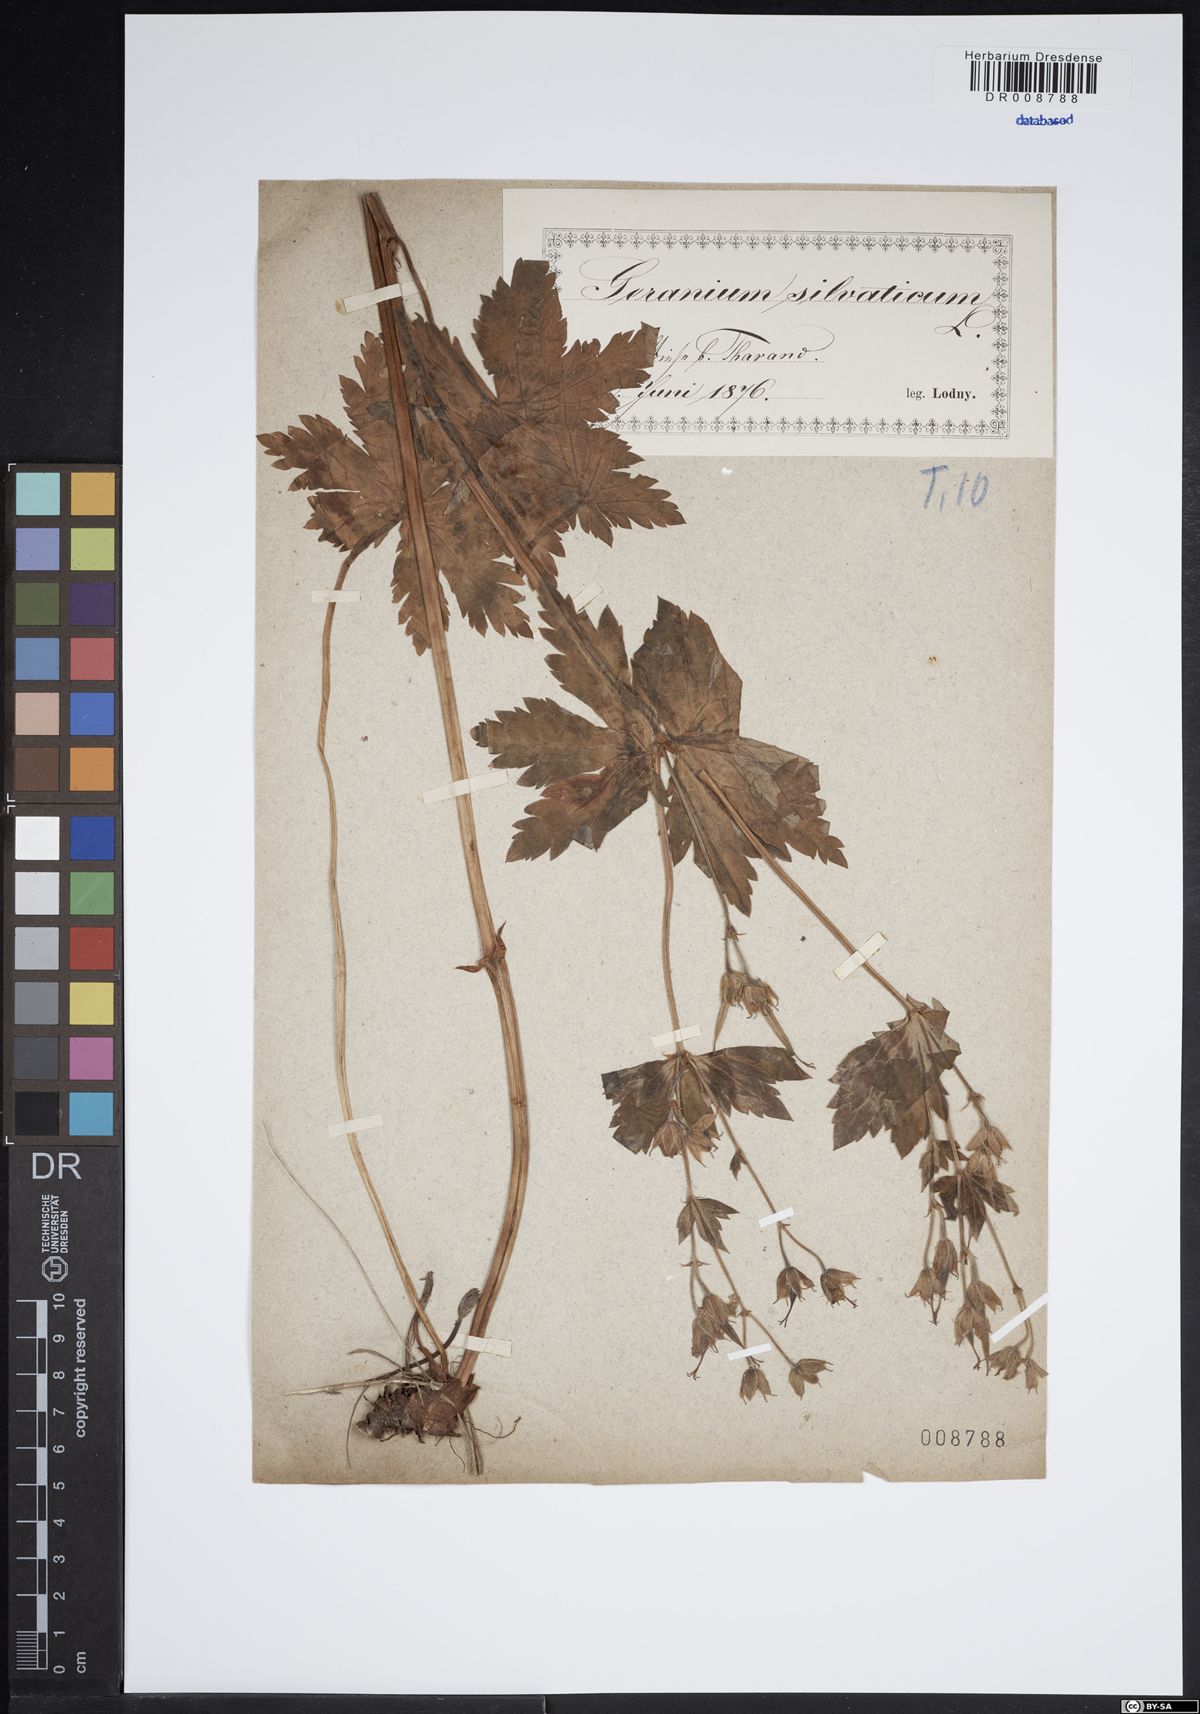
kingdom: Plantae
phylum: Tracheophyta
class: Magnoliopsida
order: Geraniales
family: Geraniaceae
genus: Geranium
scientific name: Geranium sylvaticum
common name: Wood crane's-bill
